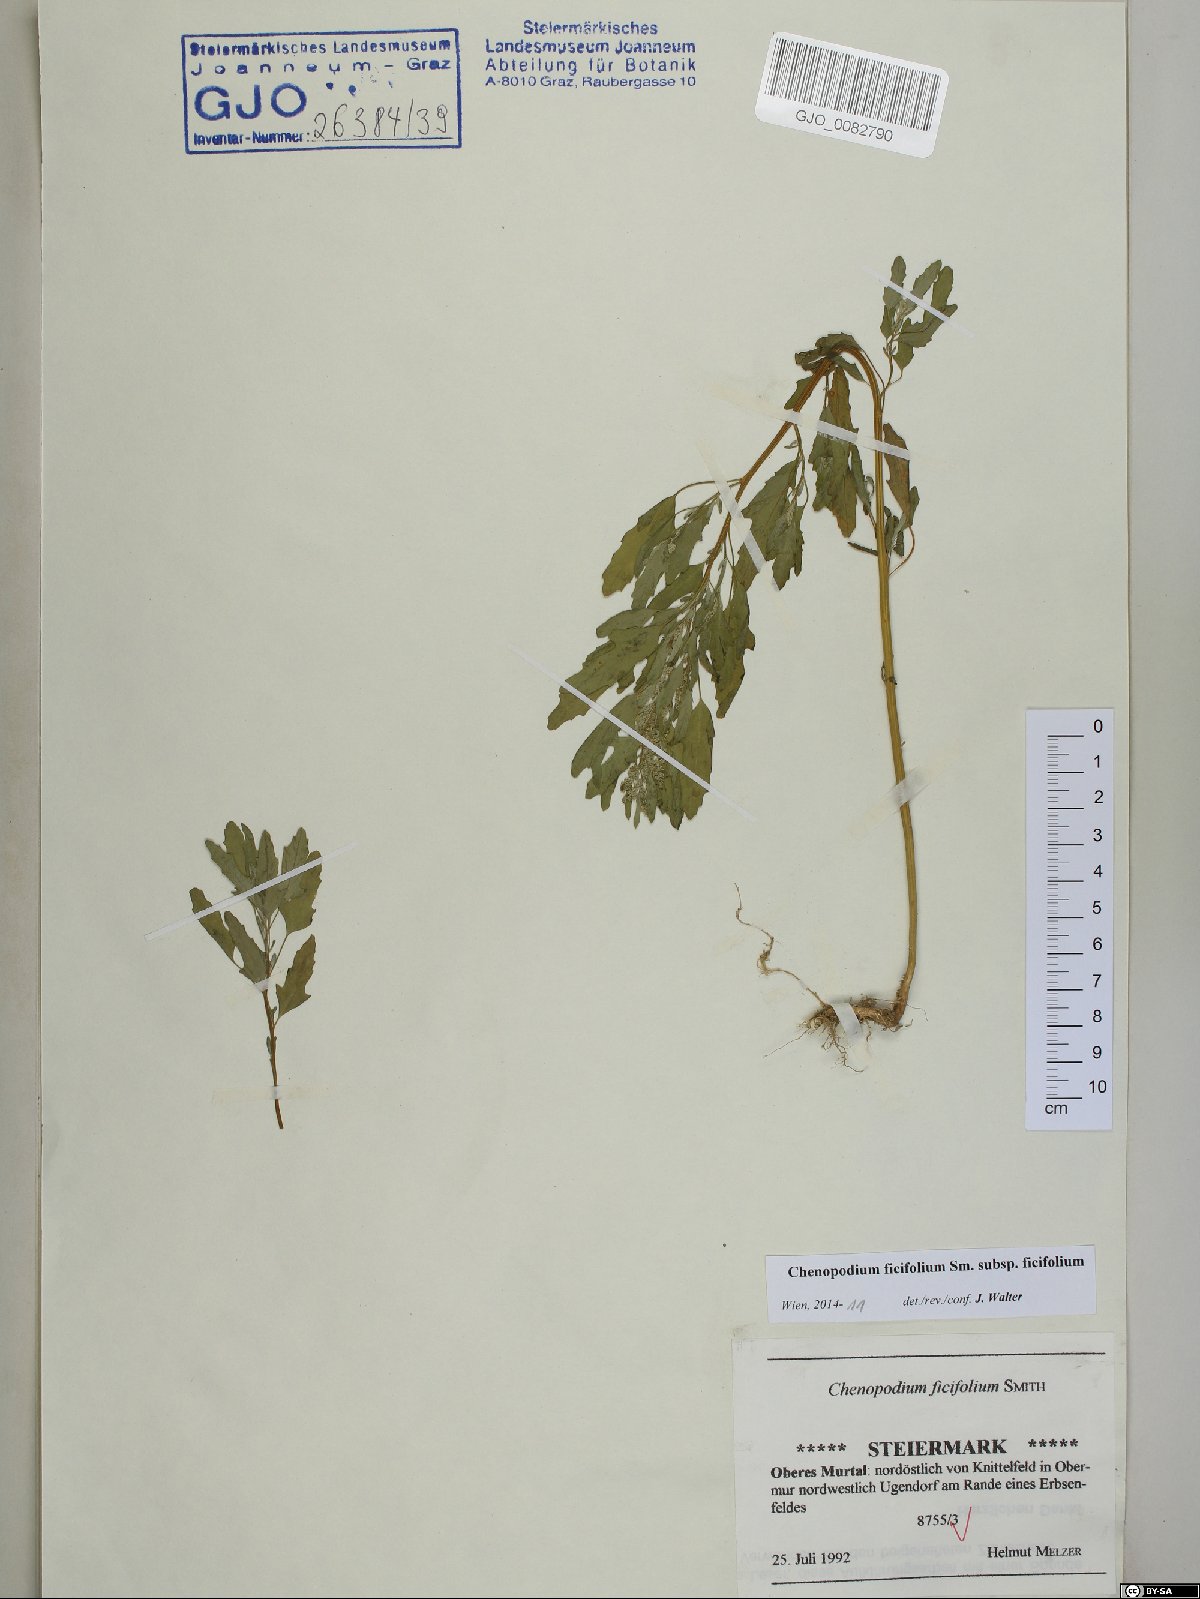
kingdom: Plantae
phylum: Tracheophyta
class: Magnoliopsida
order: Caryophyllales
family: Amaranthaceae
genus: Chenopodium
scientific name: Chenopodium ficifolium
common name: Fig-leaved goosefoot
